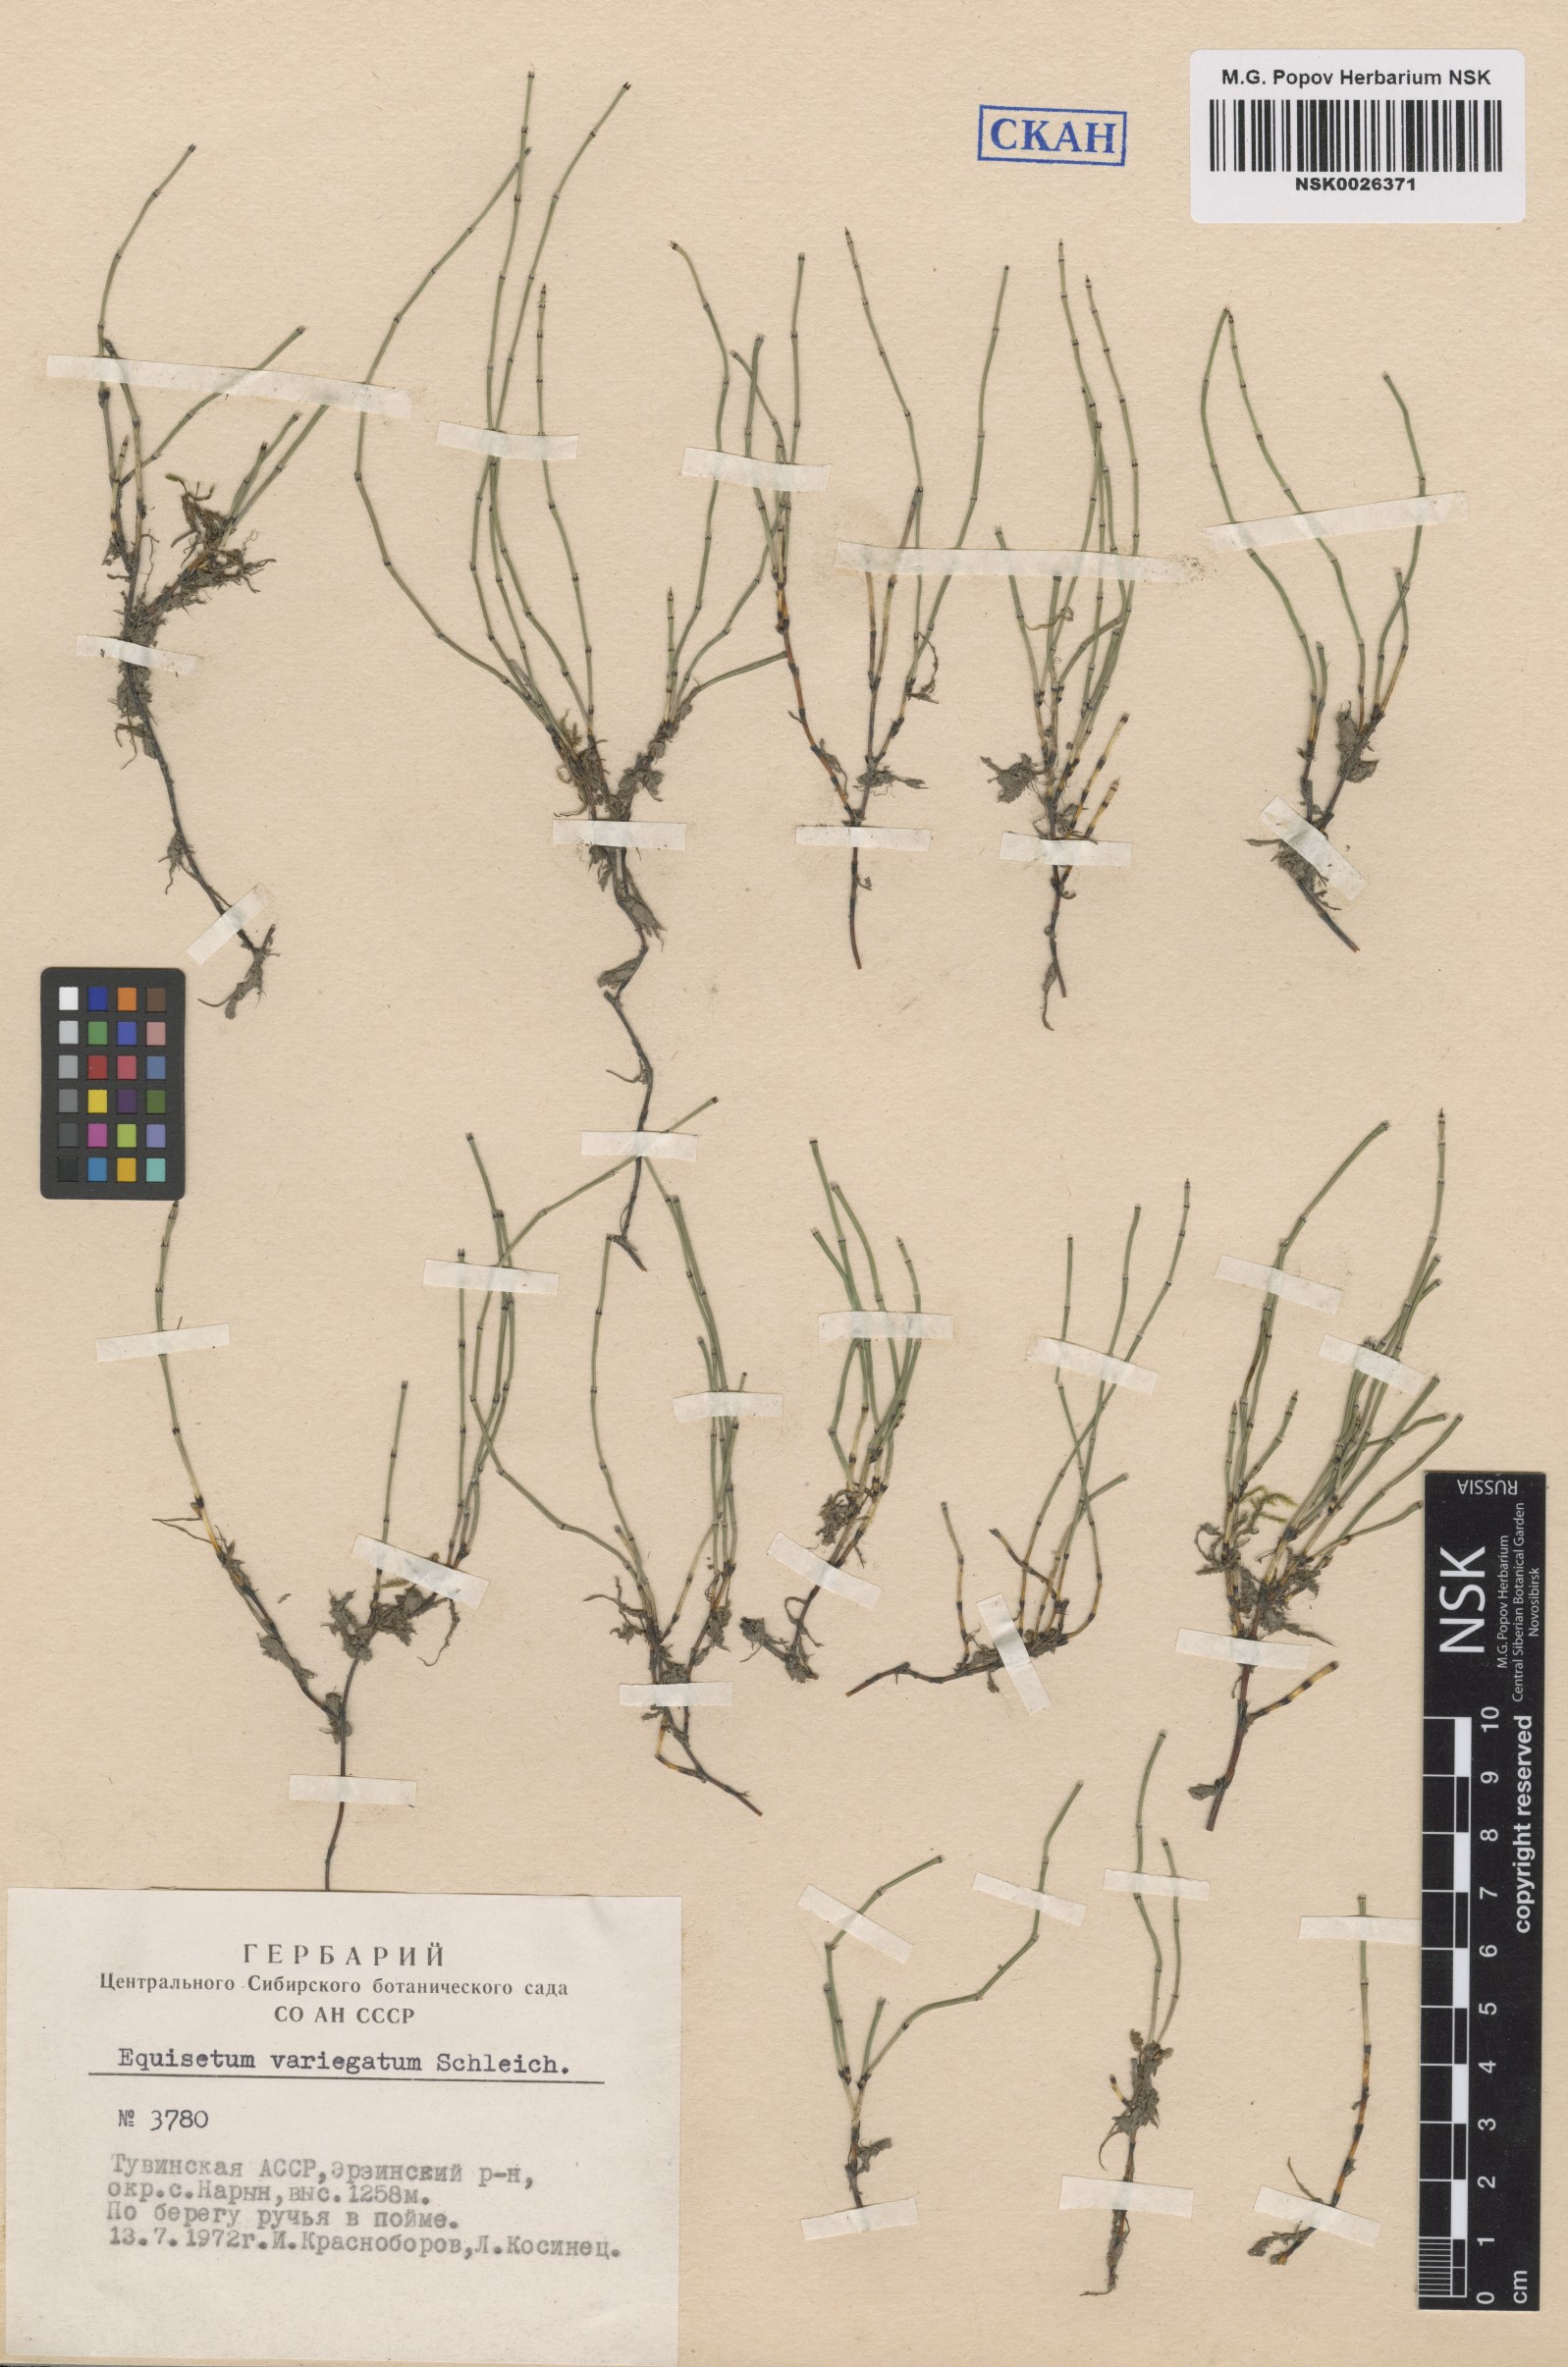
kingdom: Plantae
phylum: Tracheophyta
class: Polypodiopsida
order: Equisetales
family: Equisetaceae
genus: Equisetum
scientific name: Equisetum variegatum
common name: Variegated horsetail
